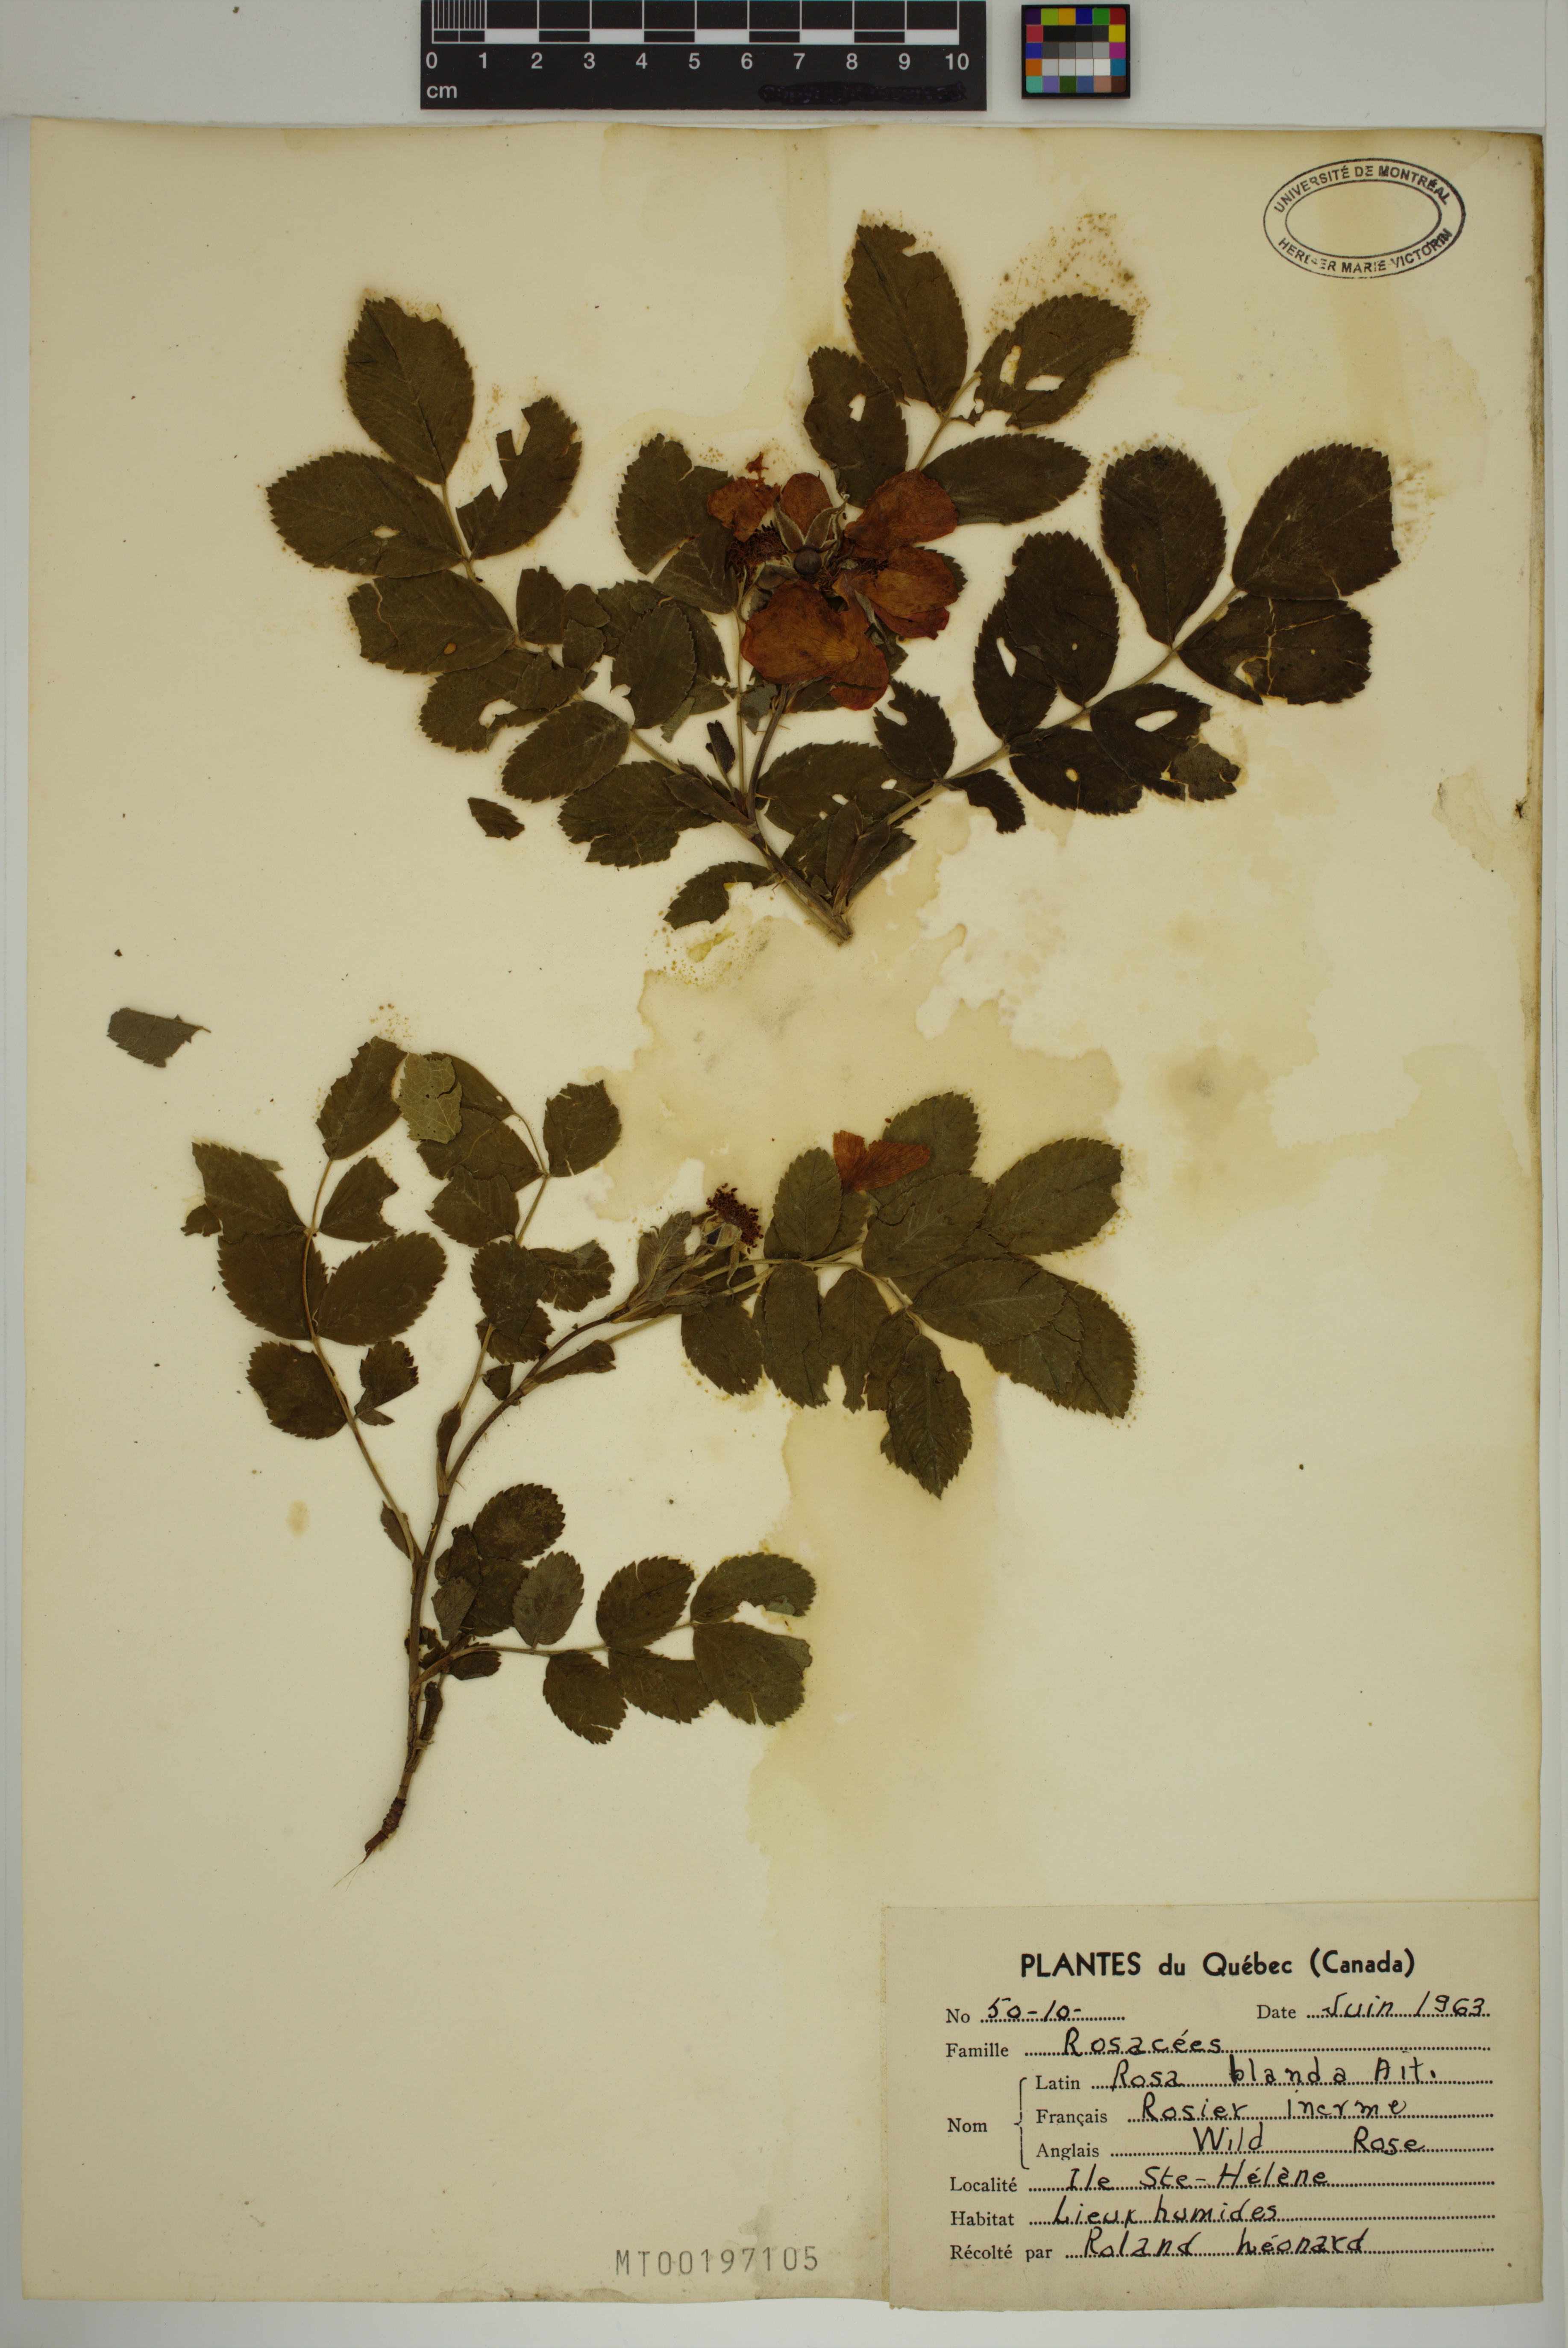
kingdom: Plantae
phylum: Tracheophyta
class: Magnoliopsida
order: Rosales
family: Rosaceae
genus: Rosa
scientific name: Rosa blanda
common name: Smooth rose
